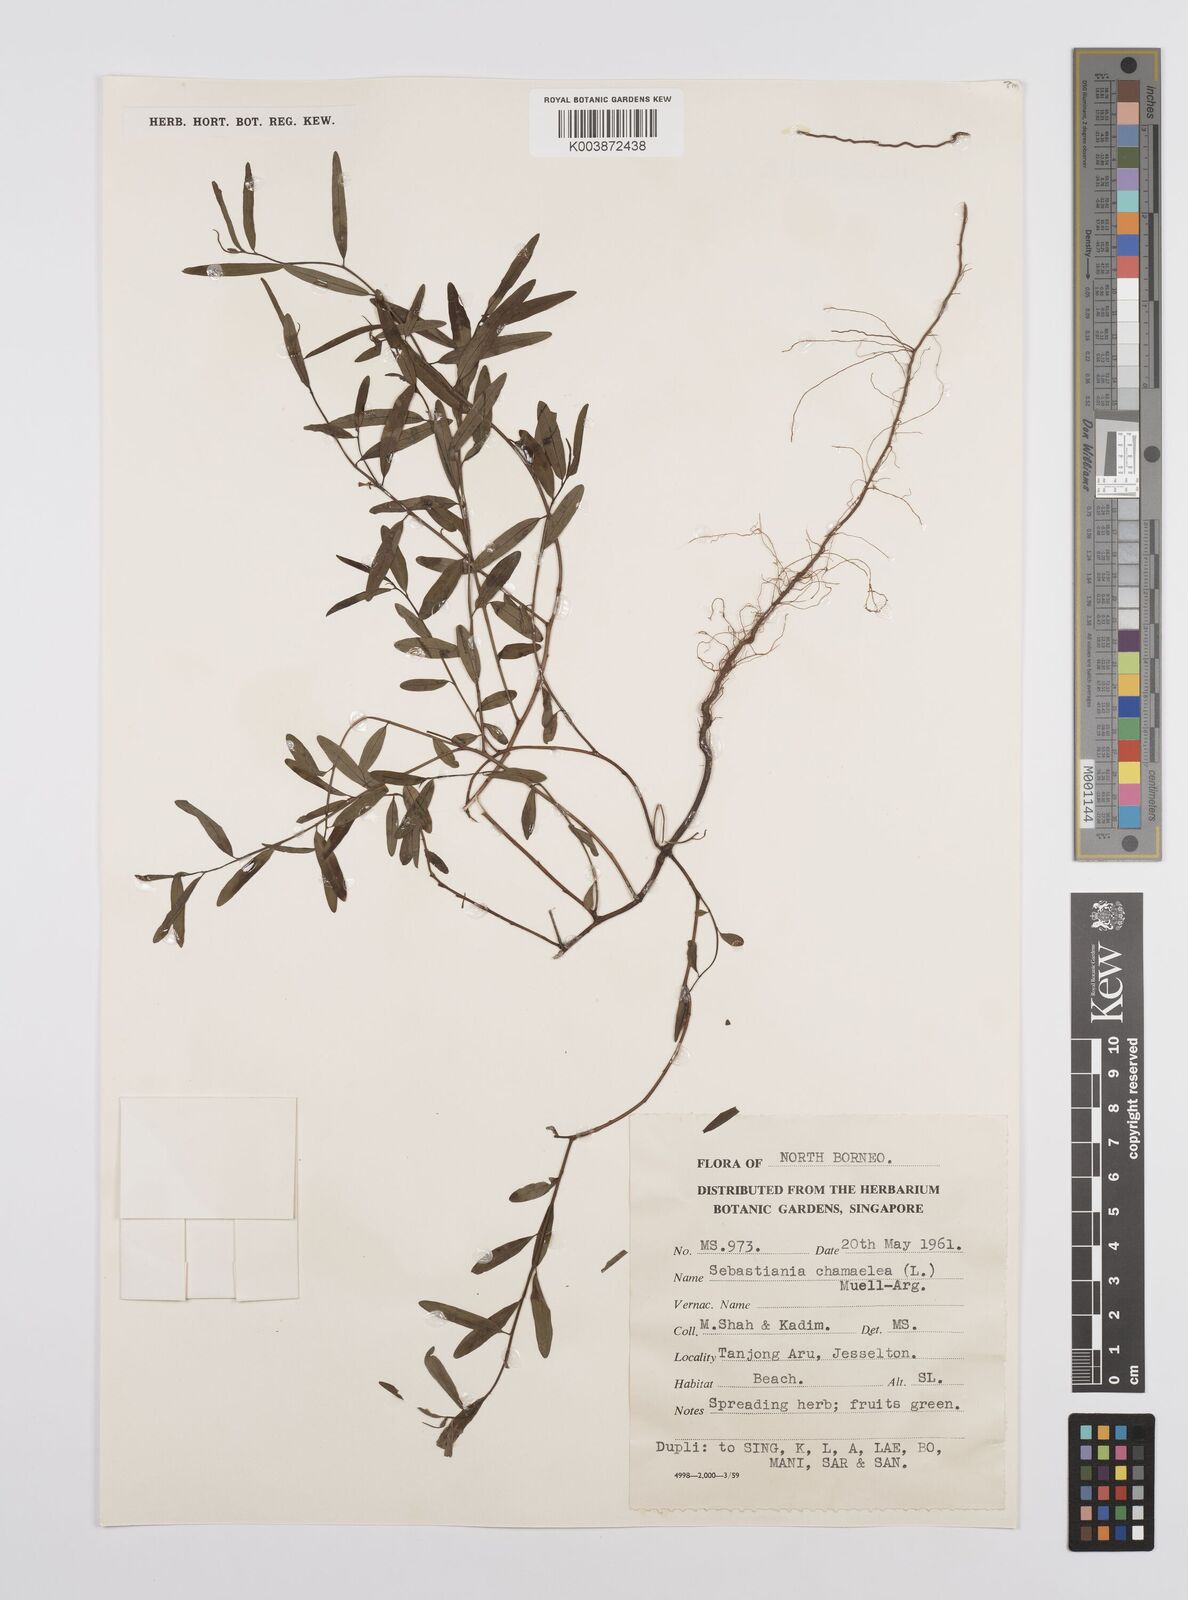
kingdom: Plantae
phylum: Tracheophyta
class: Magnoliopsida
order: Malpighiales
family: Euphorbiaceae
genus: Microstachys
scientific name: Microstachys chamaelea
